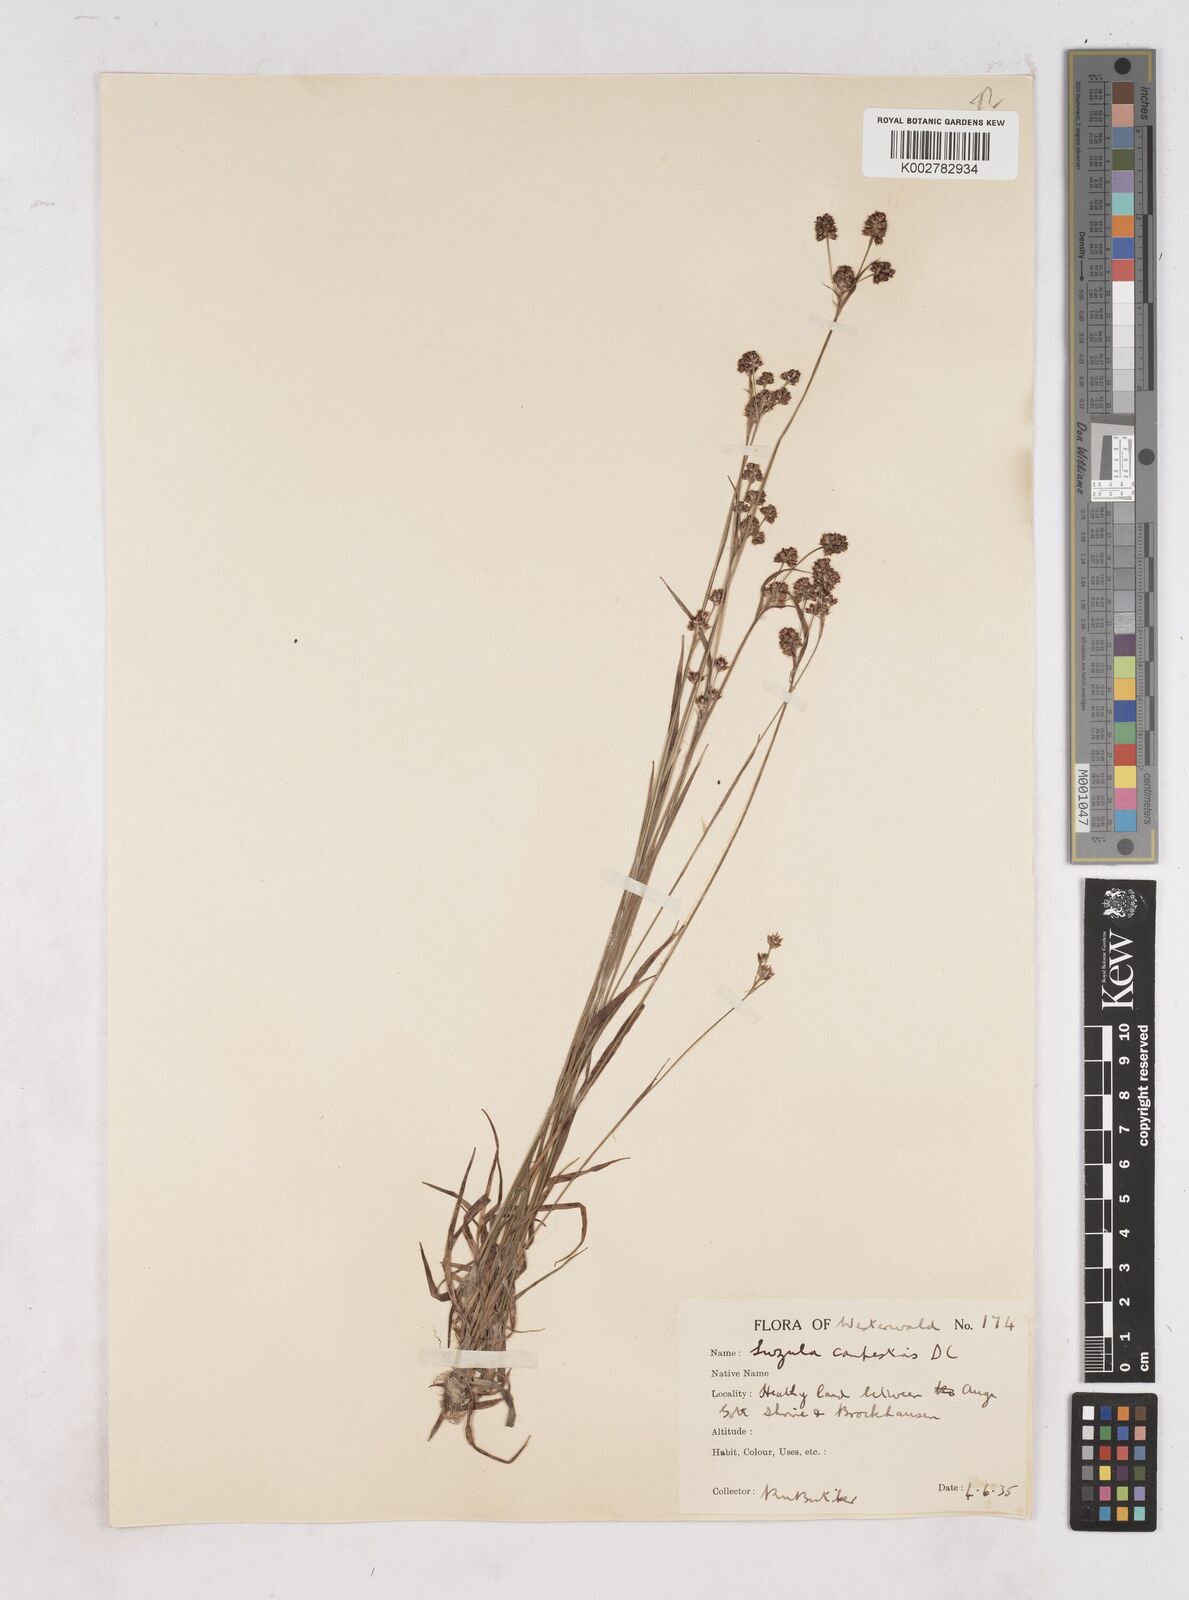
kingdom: Plantae
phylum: Tracheophyta
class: Liliopsida
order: Poales
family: Juncaceae
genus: Luzula
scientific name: Luzula campestris
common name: Field wood-rush
